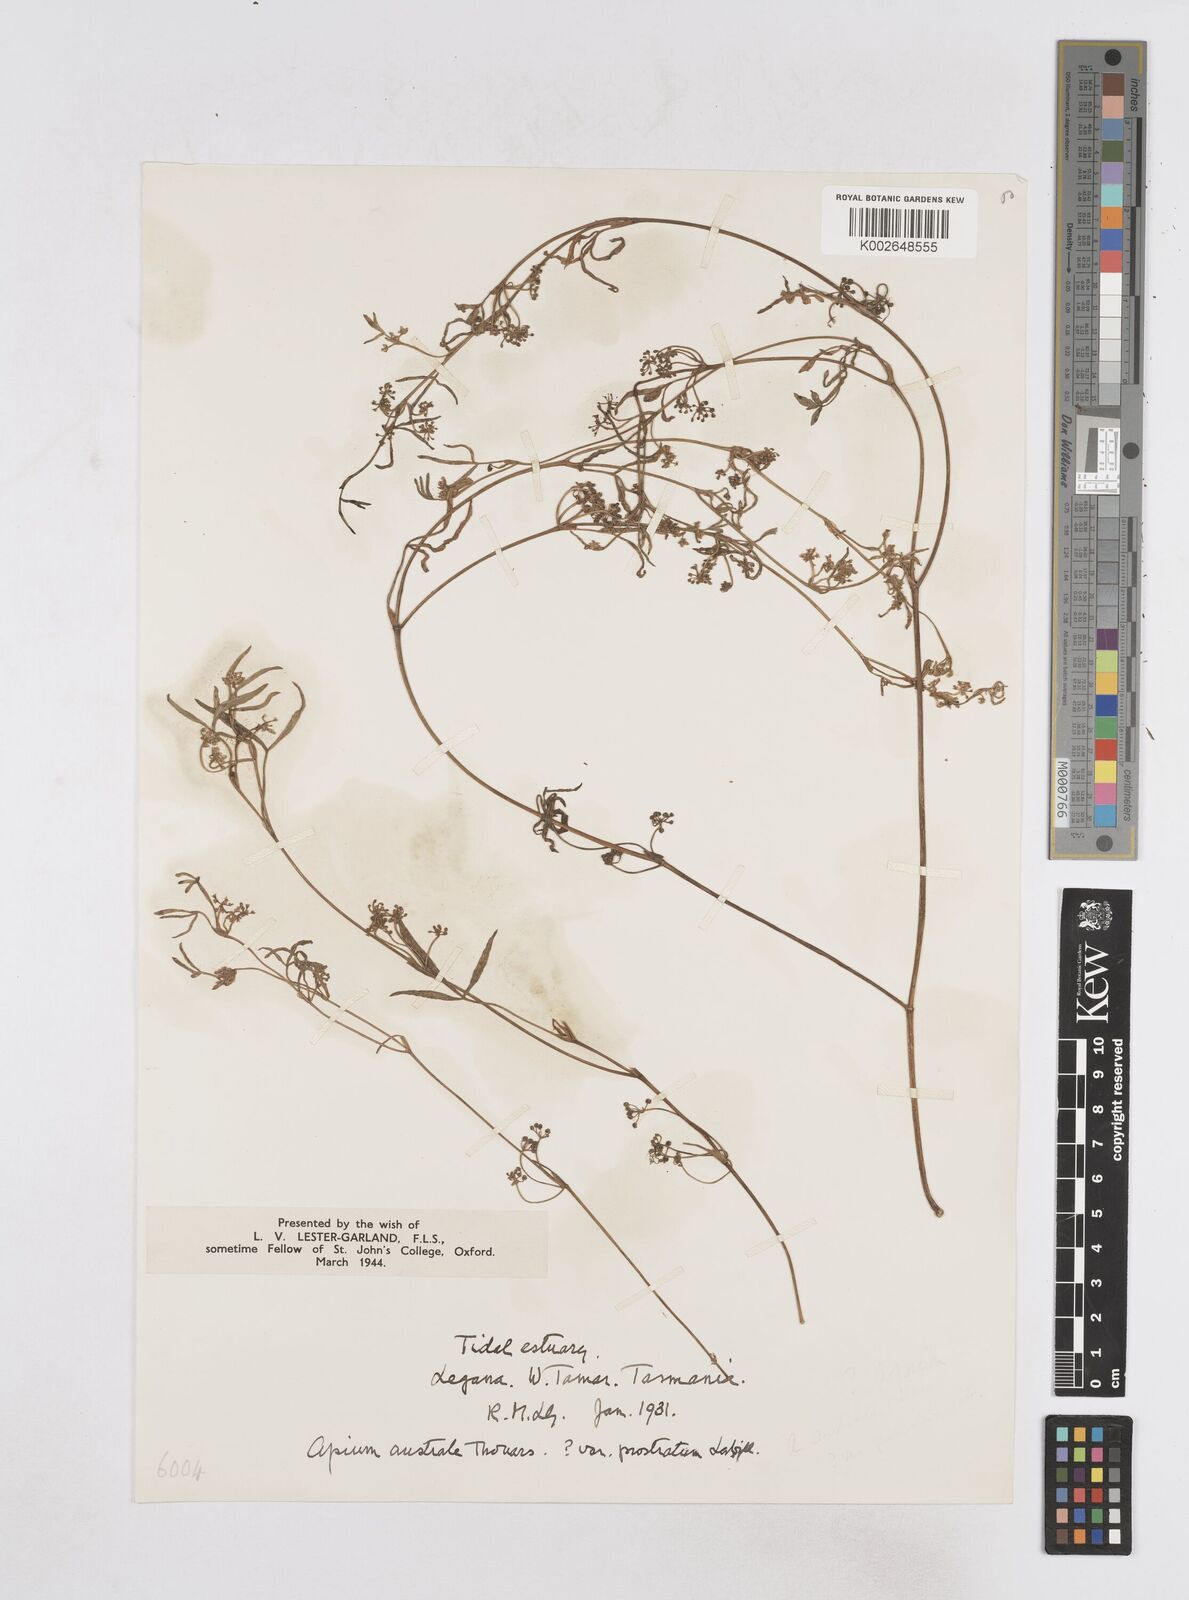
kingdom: Plantae
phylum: Tracheophyta
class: Magnoliopsida
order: Apiales
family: Apiaceae
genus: Apium
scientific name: Apium prostratum
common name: Prostrate marshwort
